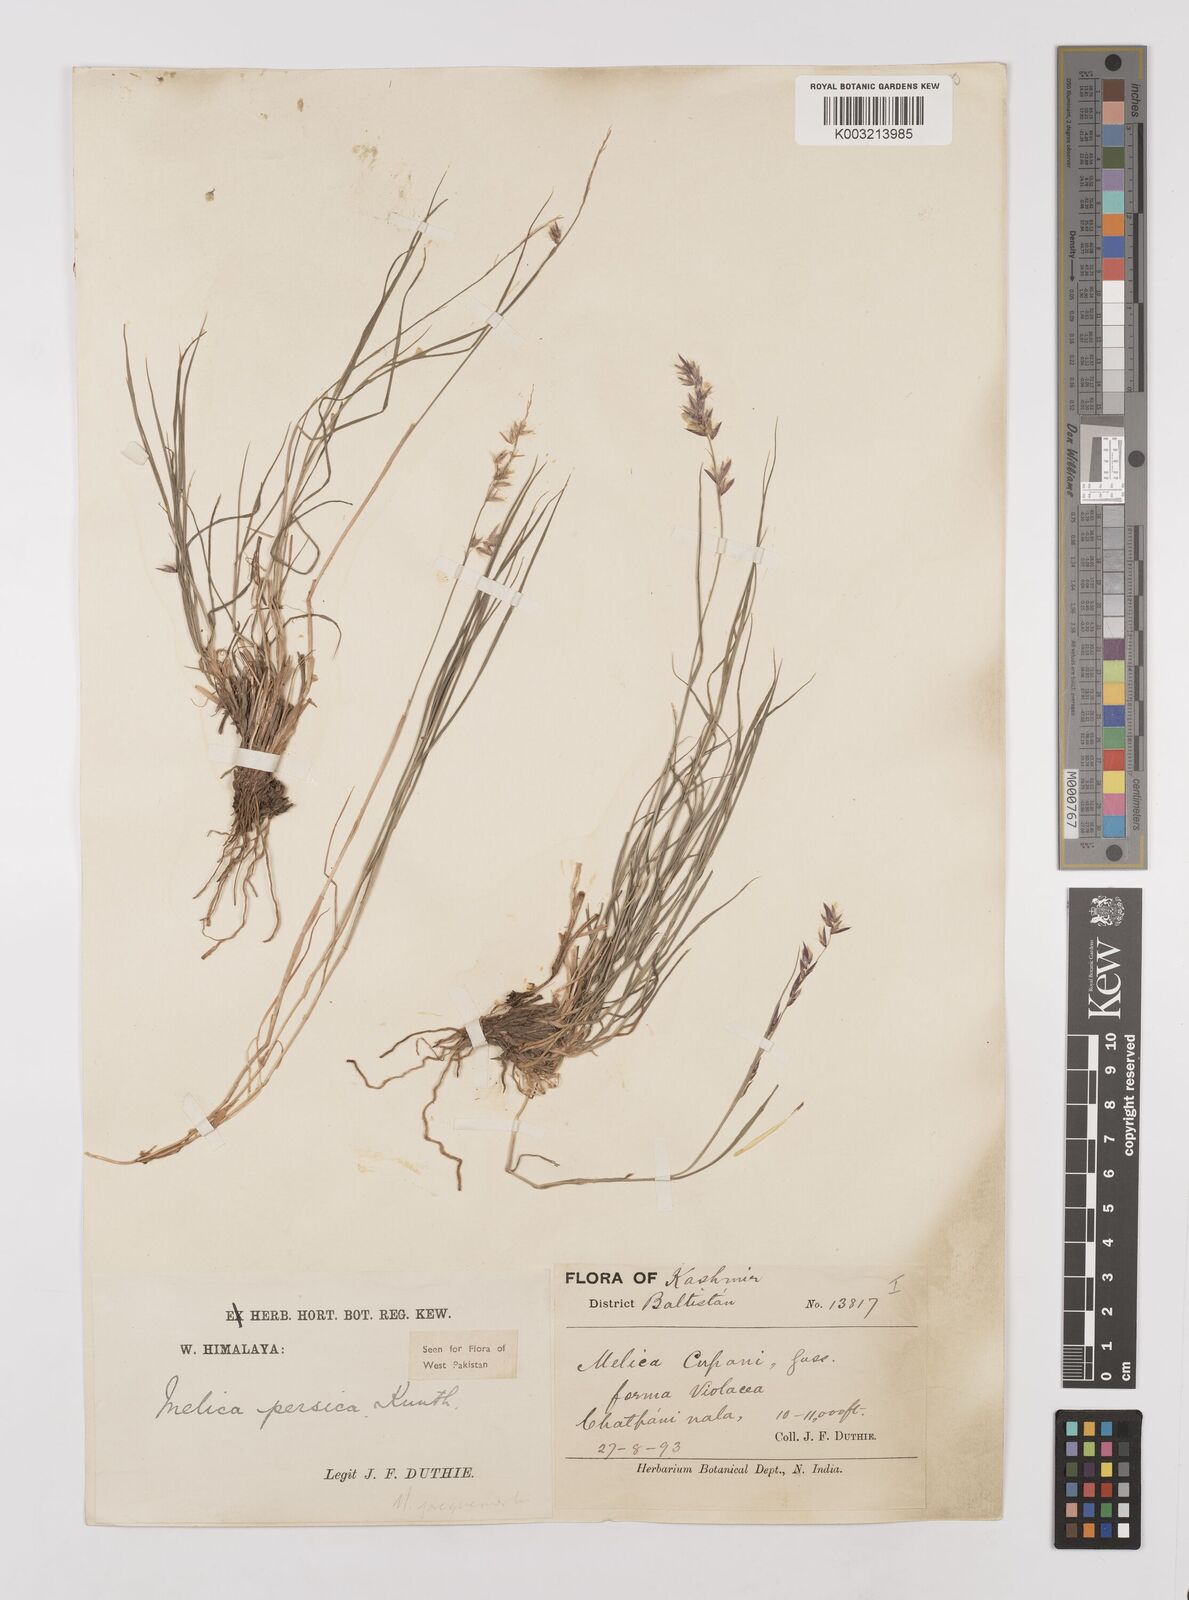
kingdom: Plantae
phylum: Tracheophyta
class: Liliopsida
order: Poales
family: Poaceae
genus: Melica
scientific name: Melica persica
